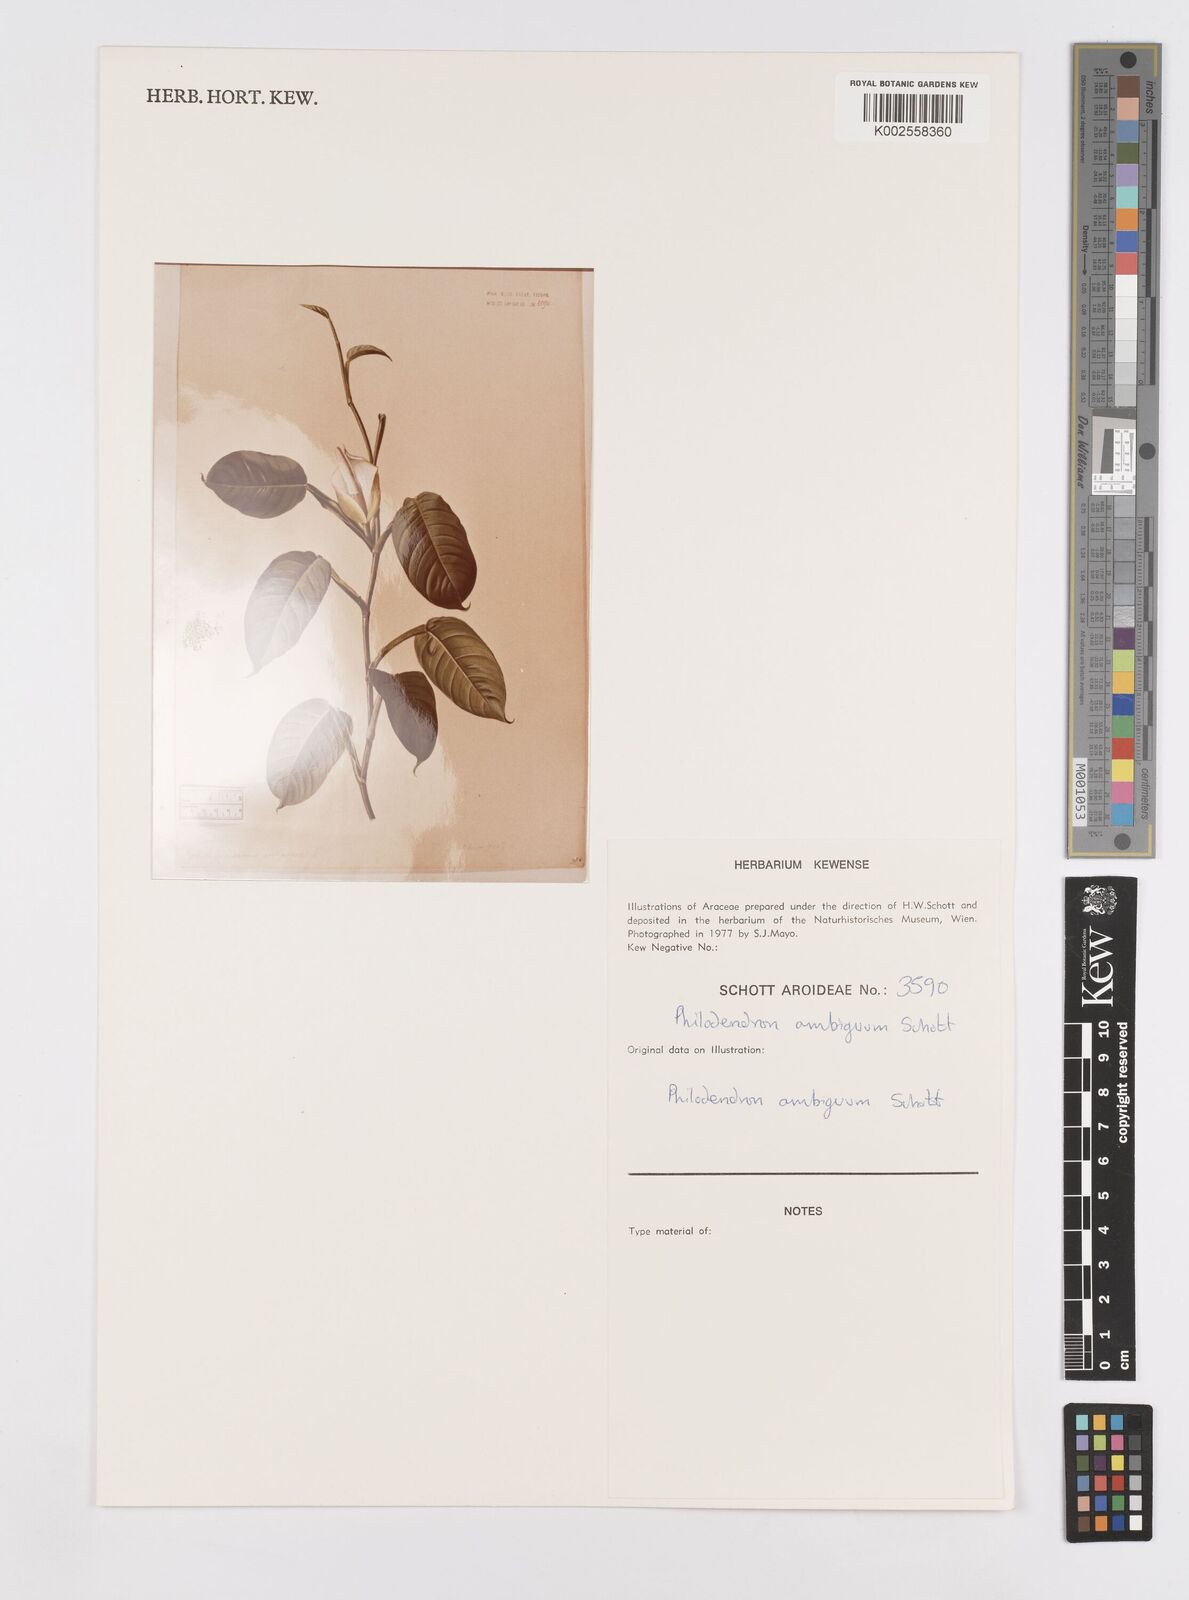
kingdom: Plantae
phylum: Tracheophyta
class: Liliopsida
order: Alismatales
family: Araceae
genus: Philodendron
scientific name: Philodendron propinquum
